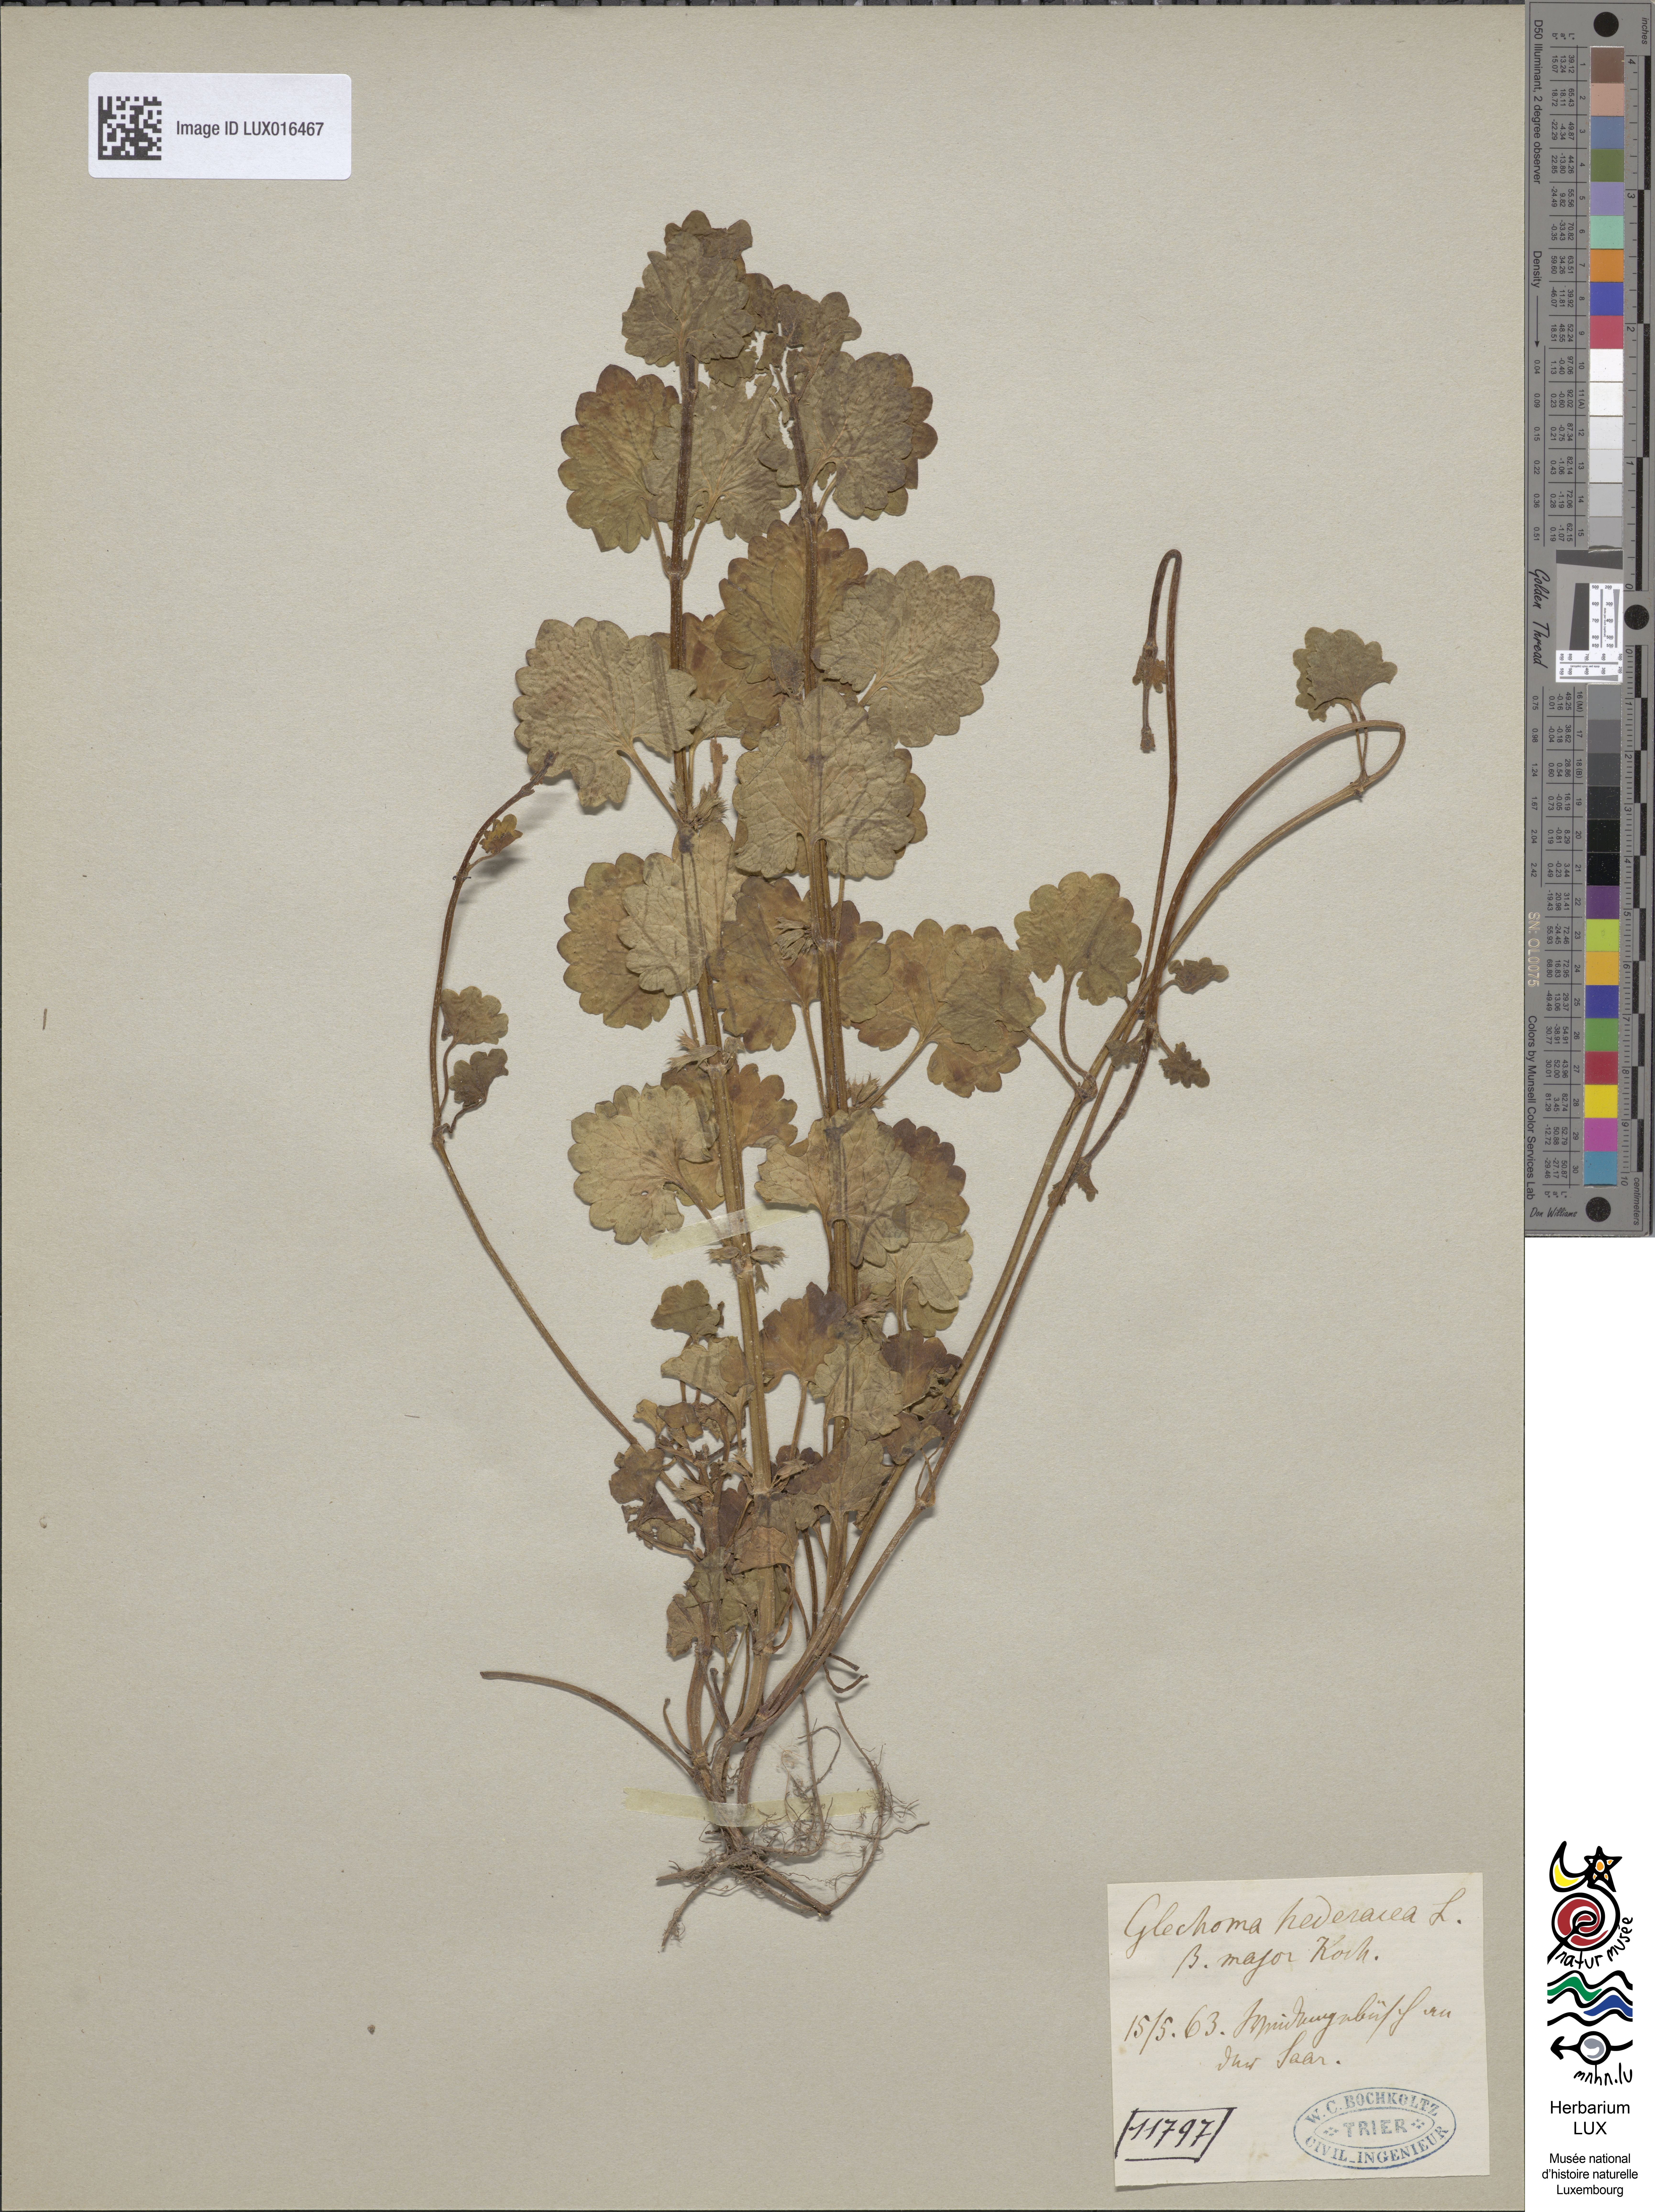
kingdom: Plantae
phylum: Tracheophyta
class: Magnoliopsida
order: Lamiales
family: Lamiaceae
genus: Glechoma
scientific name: Glechoma hederacea
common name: Ground ivy
